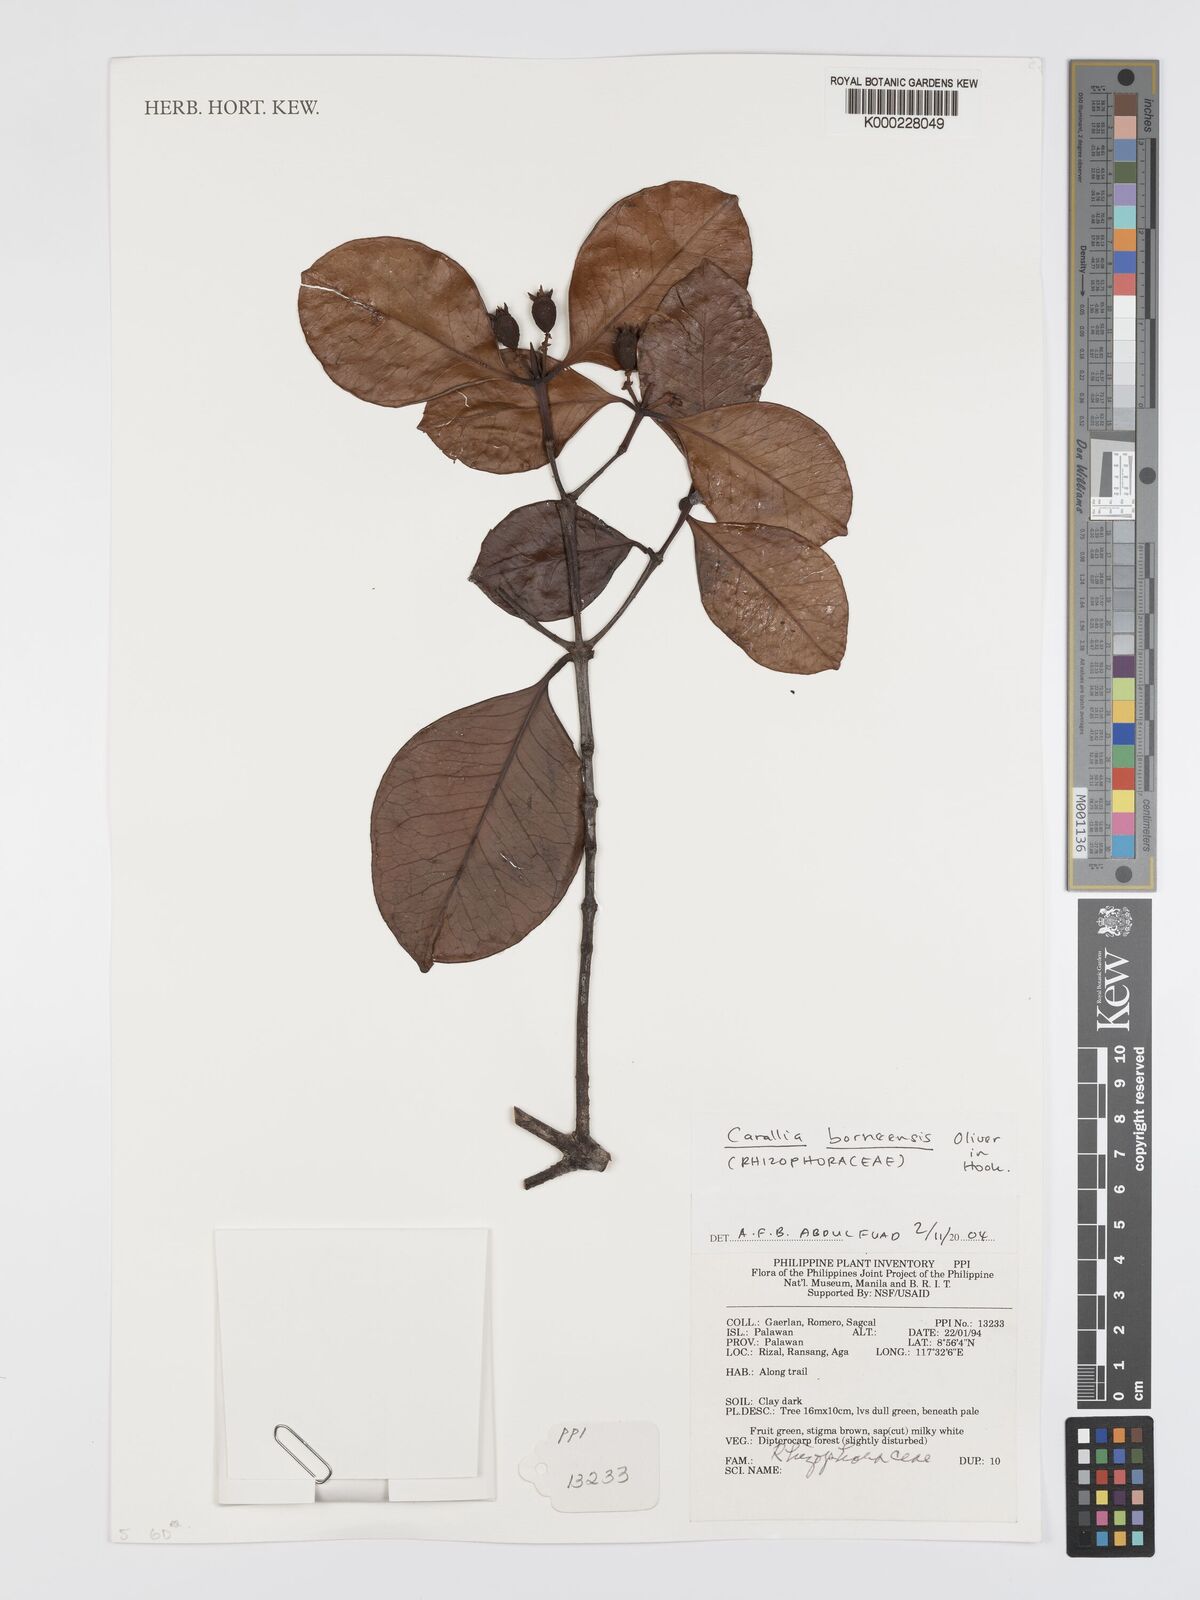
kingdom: Plantae
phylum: Tracheophyta
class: Magnoliopsida
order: Malpighiales
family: Rhizophoraceae
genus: Carallia
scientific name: Carallia borneensis
